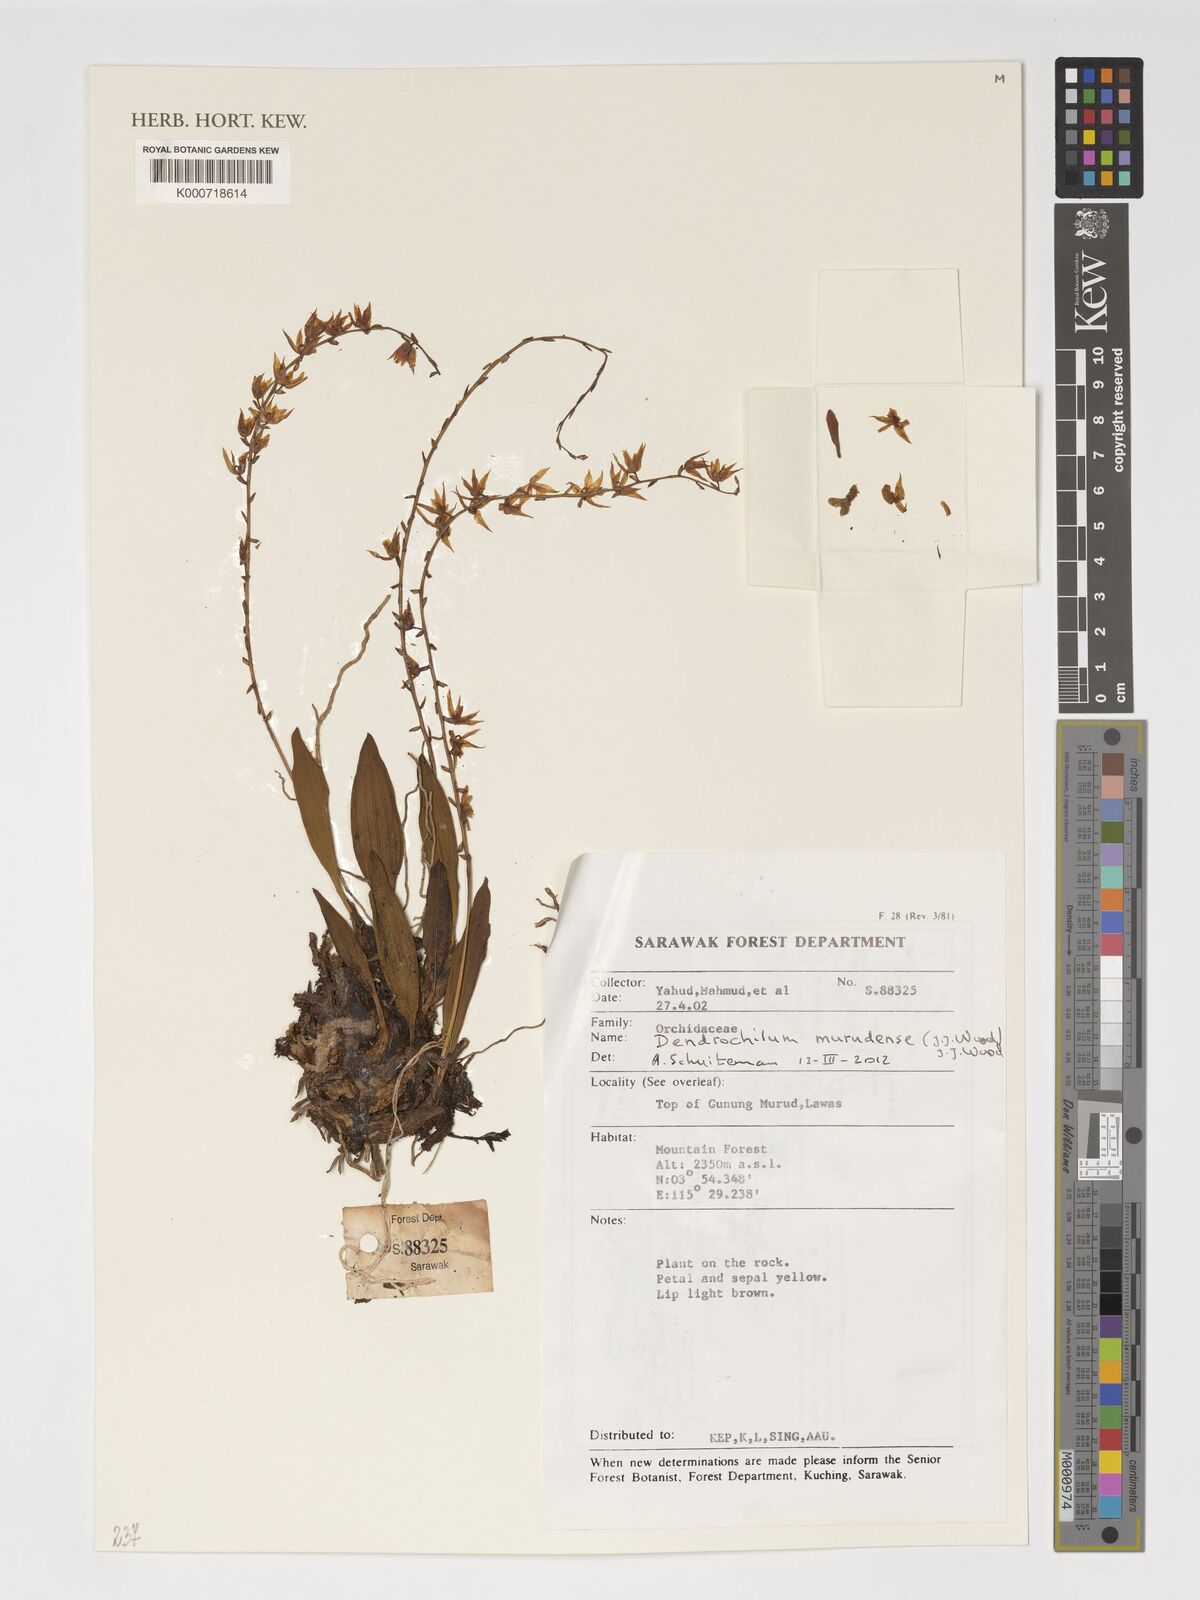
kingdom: Plantae
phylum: Tracheophyta
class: Liliopsida
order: Asparagales
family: Orchidaceae
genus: Coelogyne
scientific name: Coelogyne murudensis
